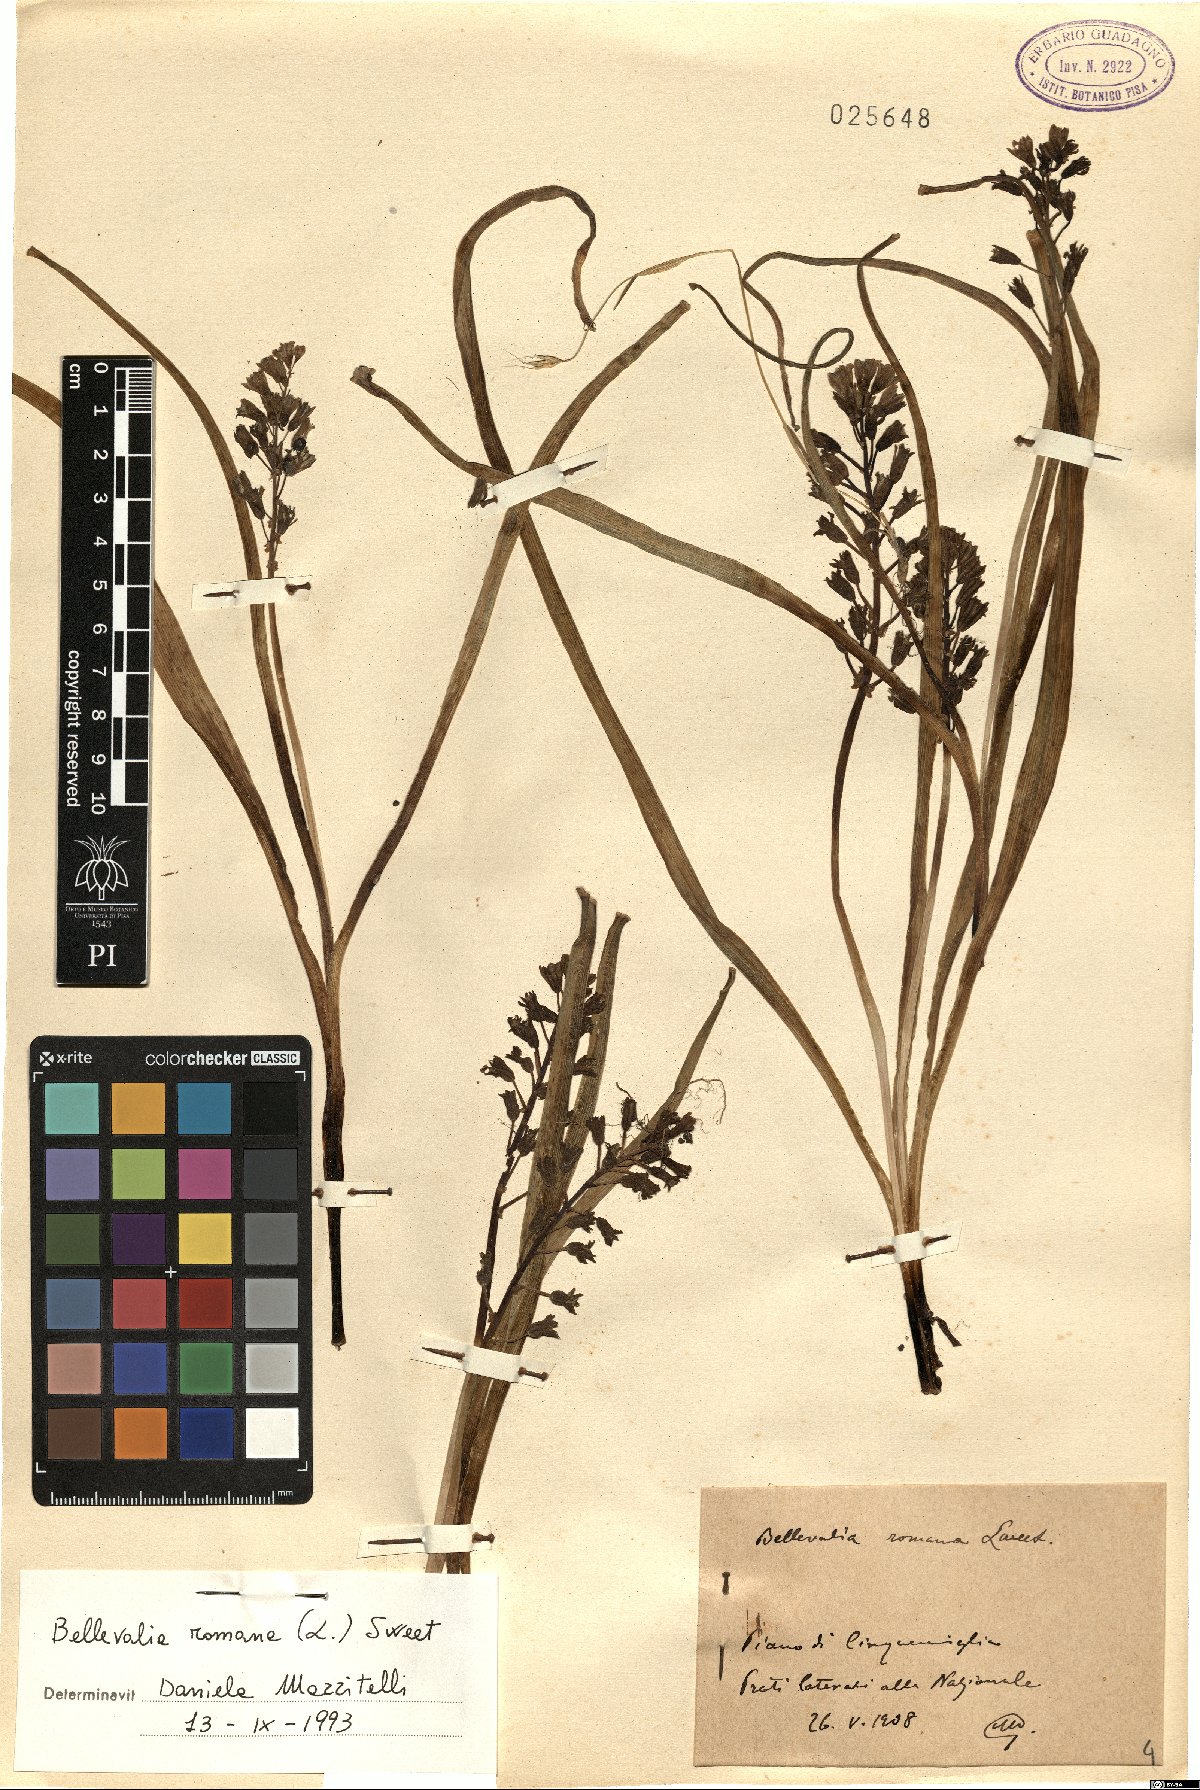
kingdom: Plantae
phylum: Tracheophyta
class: Liliopsida
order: Asparagales
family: Asparagaceae
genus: Bellevalia
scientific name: Bellevalia romana
